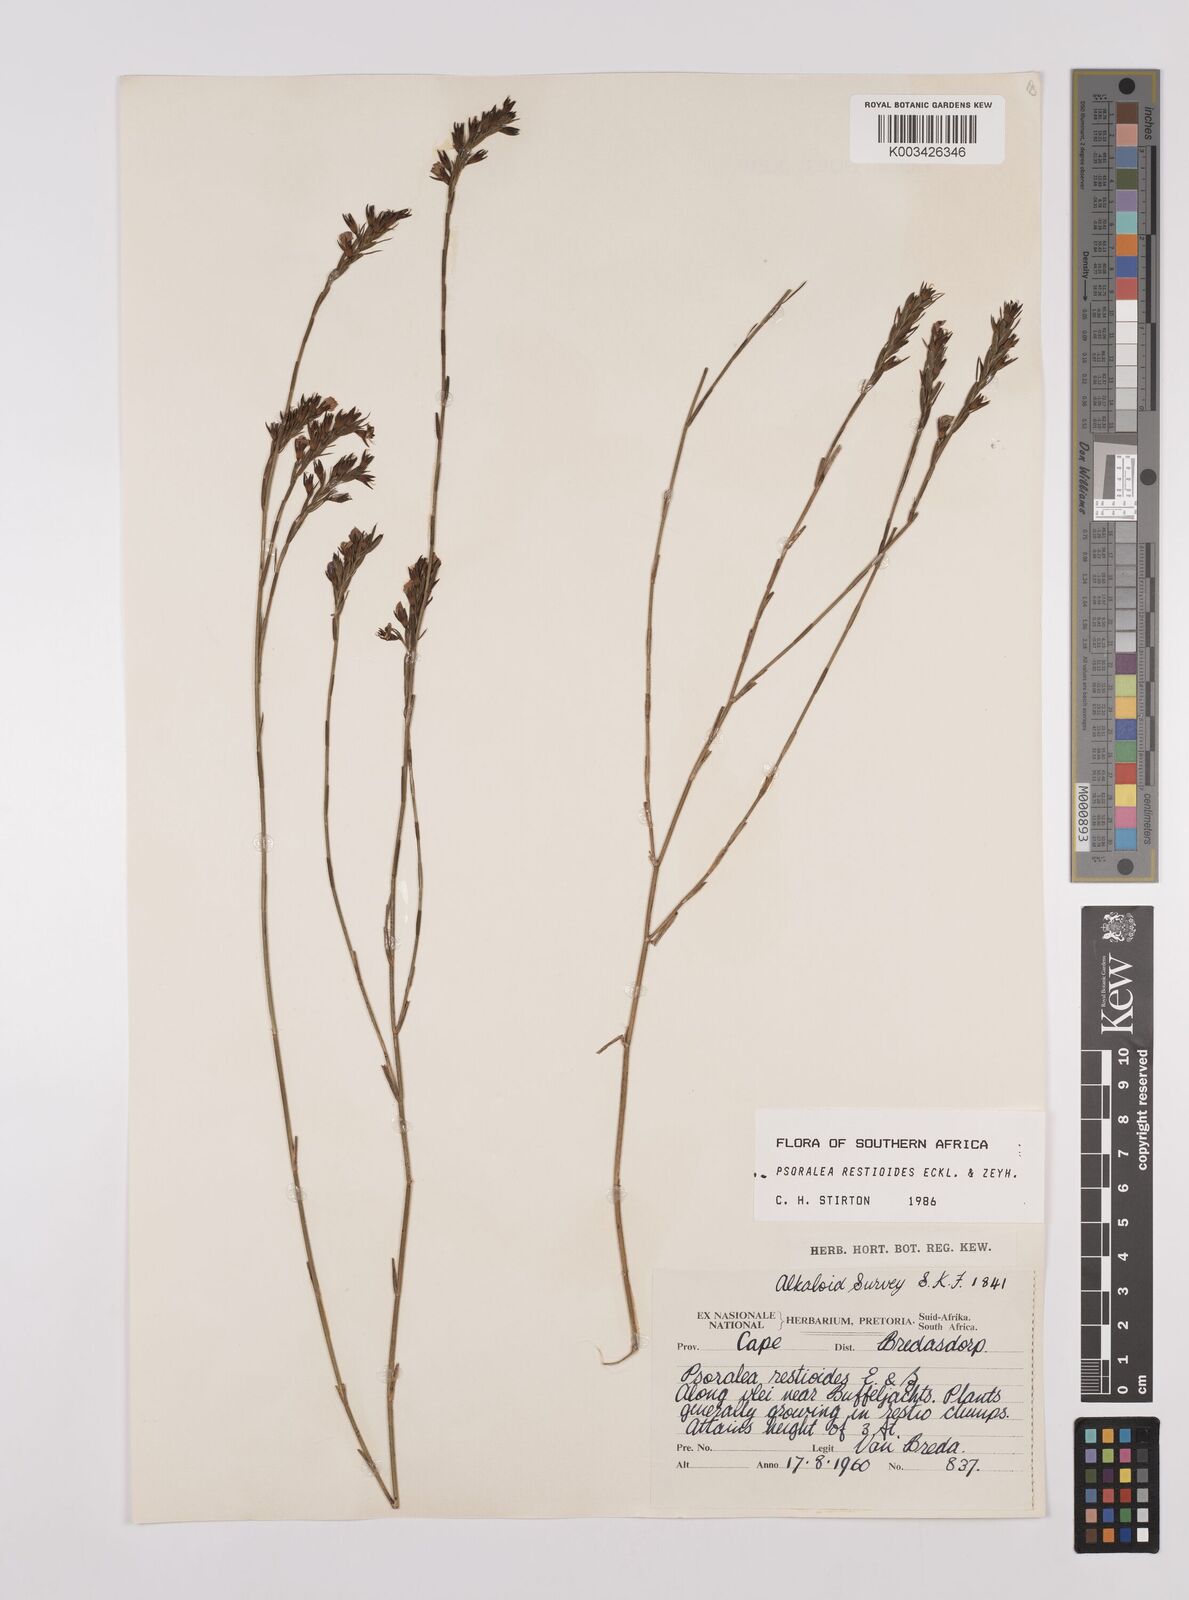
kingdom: Plantae
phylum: Tracheophyta
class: Magnoliopsida
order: Fabales
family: Fabaceae
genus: Psoralea
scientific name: Psoralea restioides
